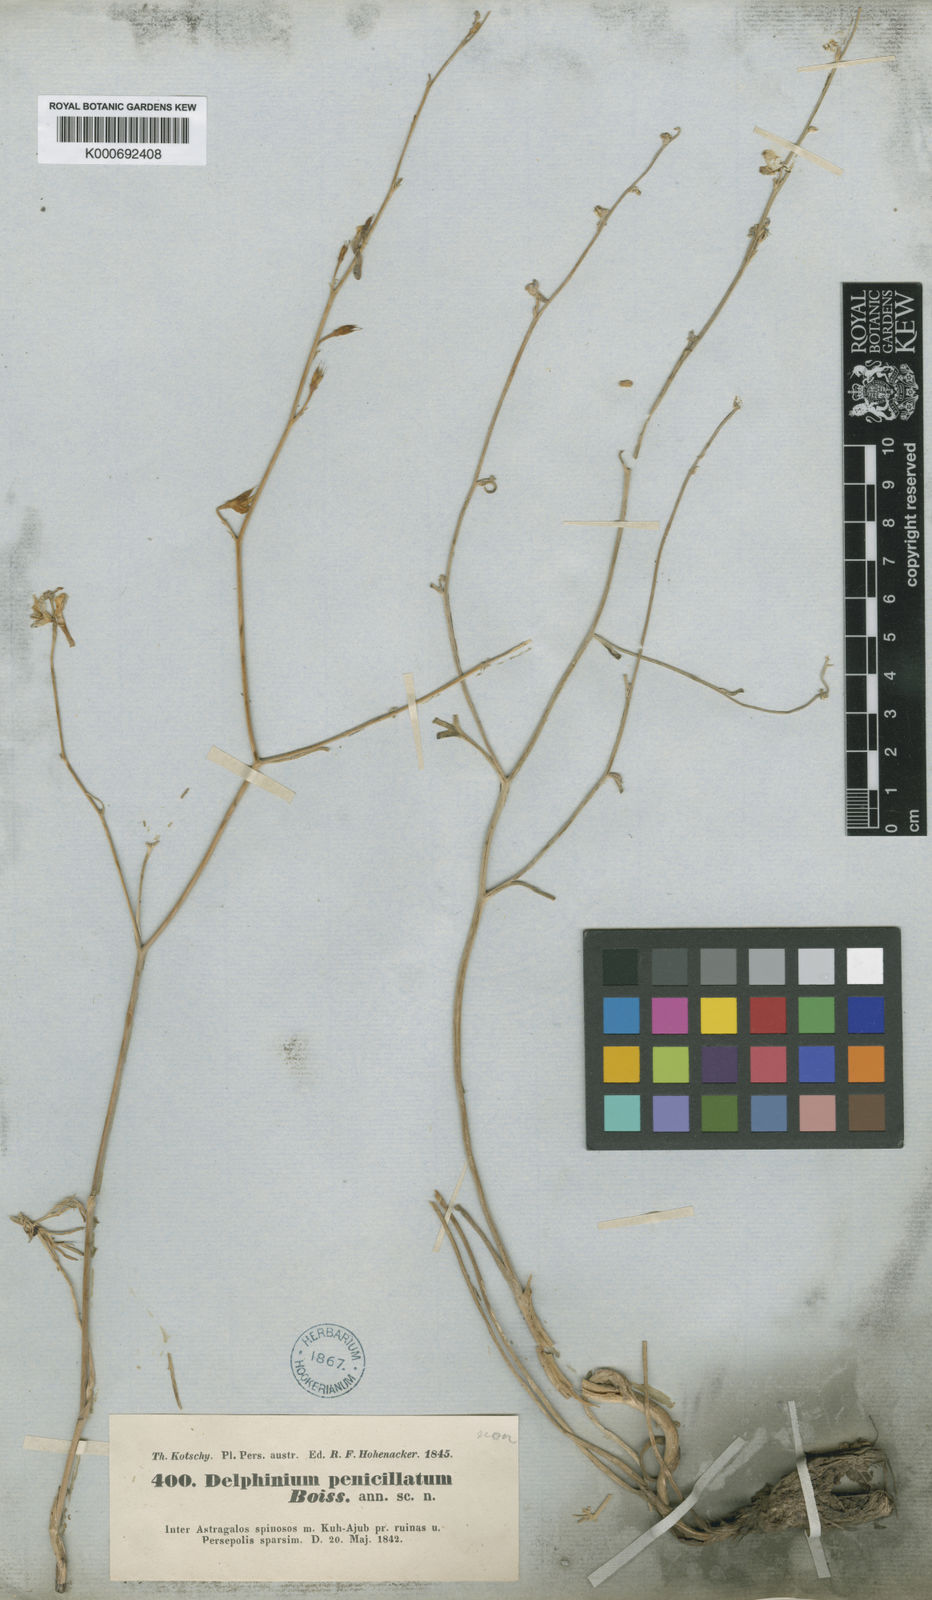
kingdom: Plantae
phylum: Tracheophyta
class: Magnoliopsida
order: Ranunculales
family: Ranunculaceae
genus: Delphinium
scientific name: Delphinium cyphoplectrum
